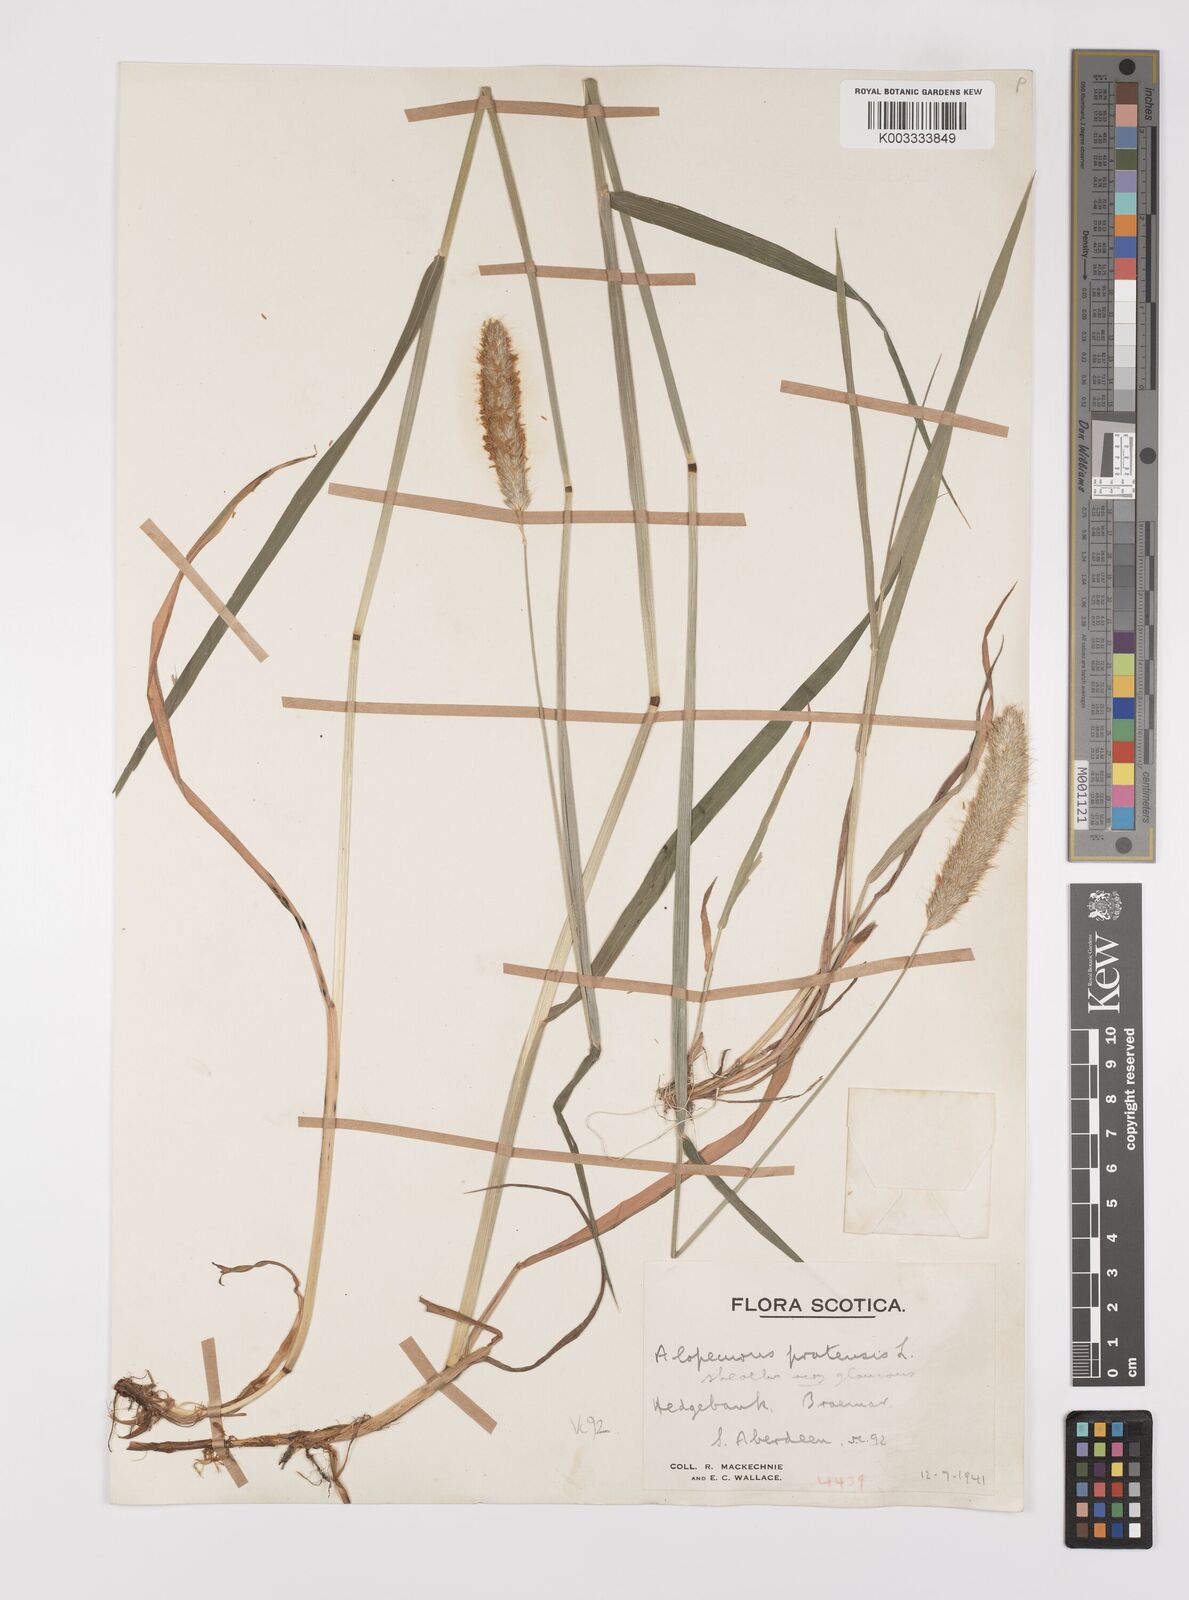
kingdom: Plantae
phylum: Tracheophyta
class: Liliopsida
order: Poales
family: Poaceae
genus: Alopecurus
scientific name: Alopecurus pratensis
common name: Meadow foxtail
